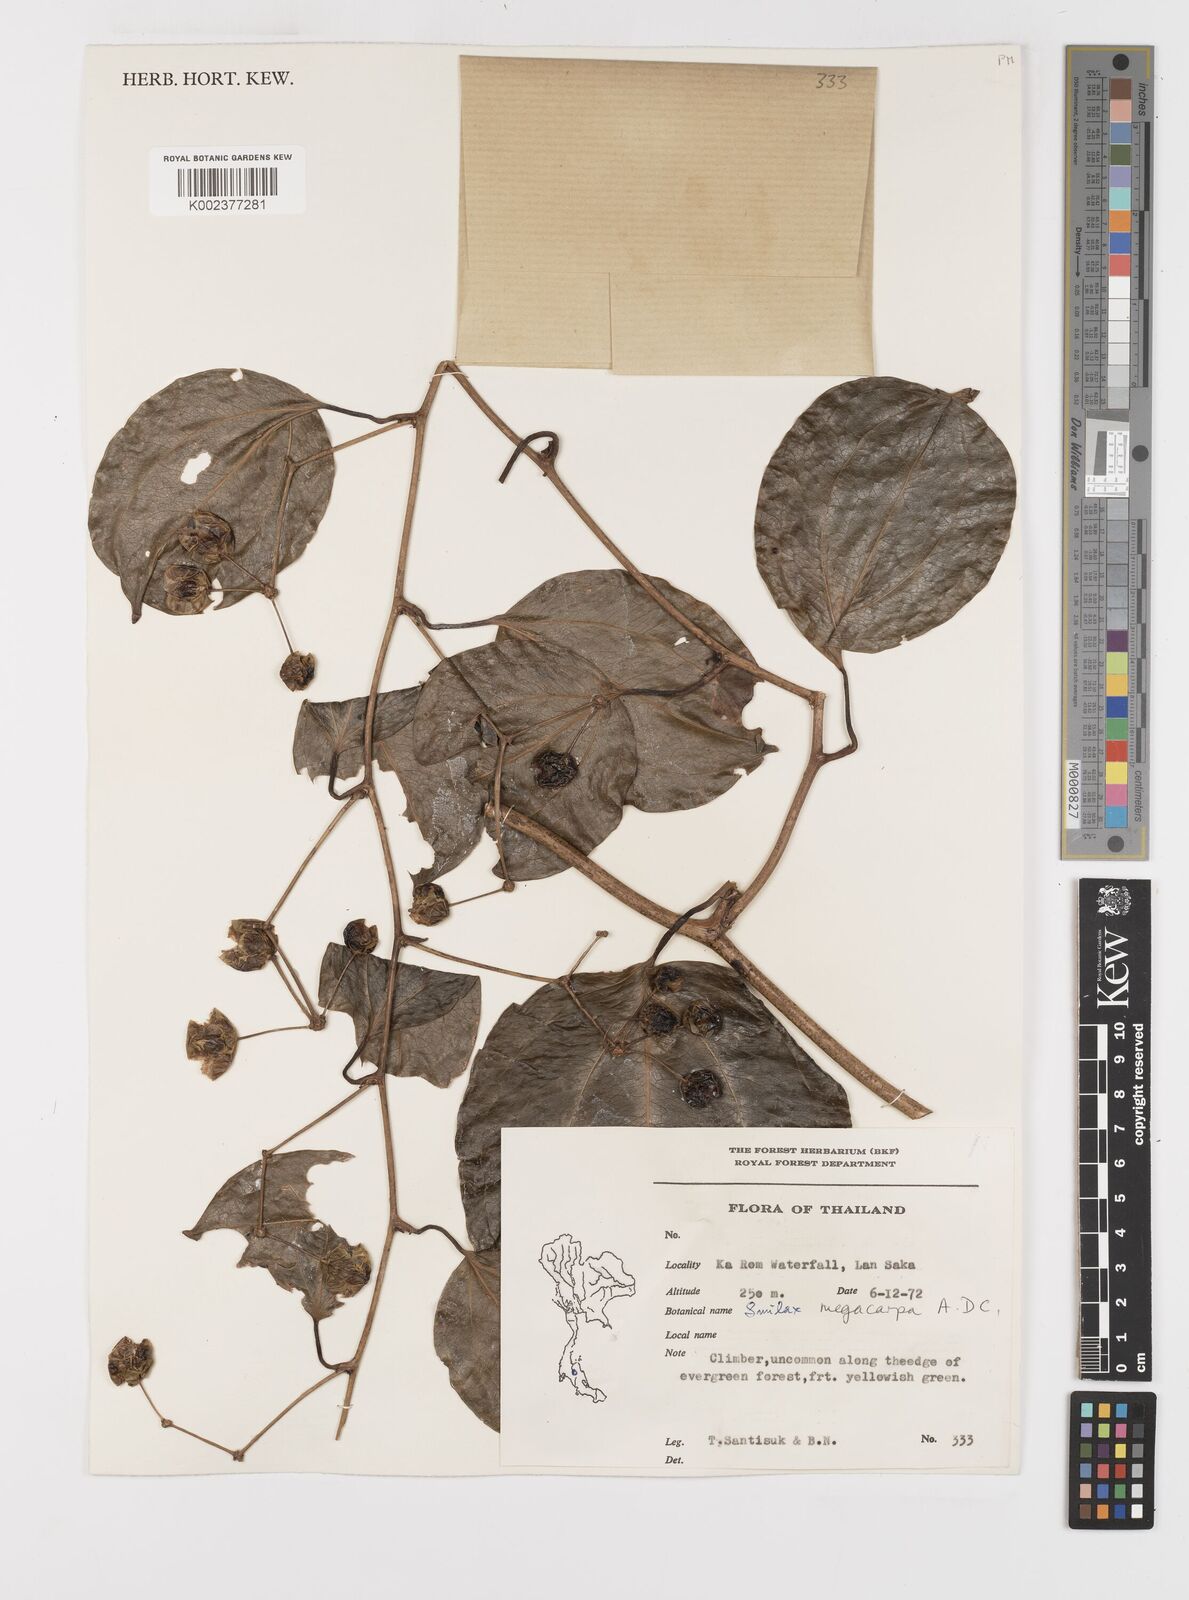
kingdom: Plantae
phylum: Tracheophyta
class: Liliopsida
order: Liliales
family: Smilacaceae
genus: Smilax
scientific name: Smilax megacarpa
